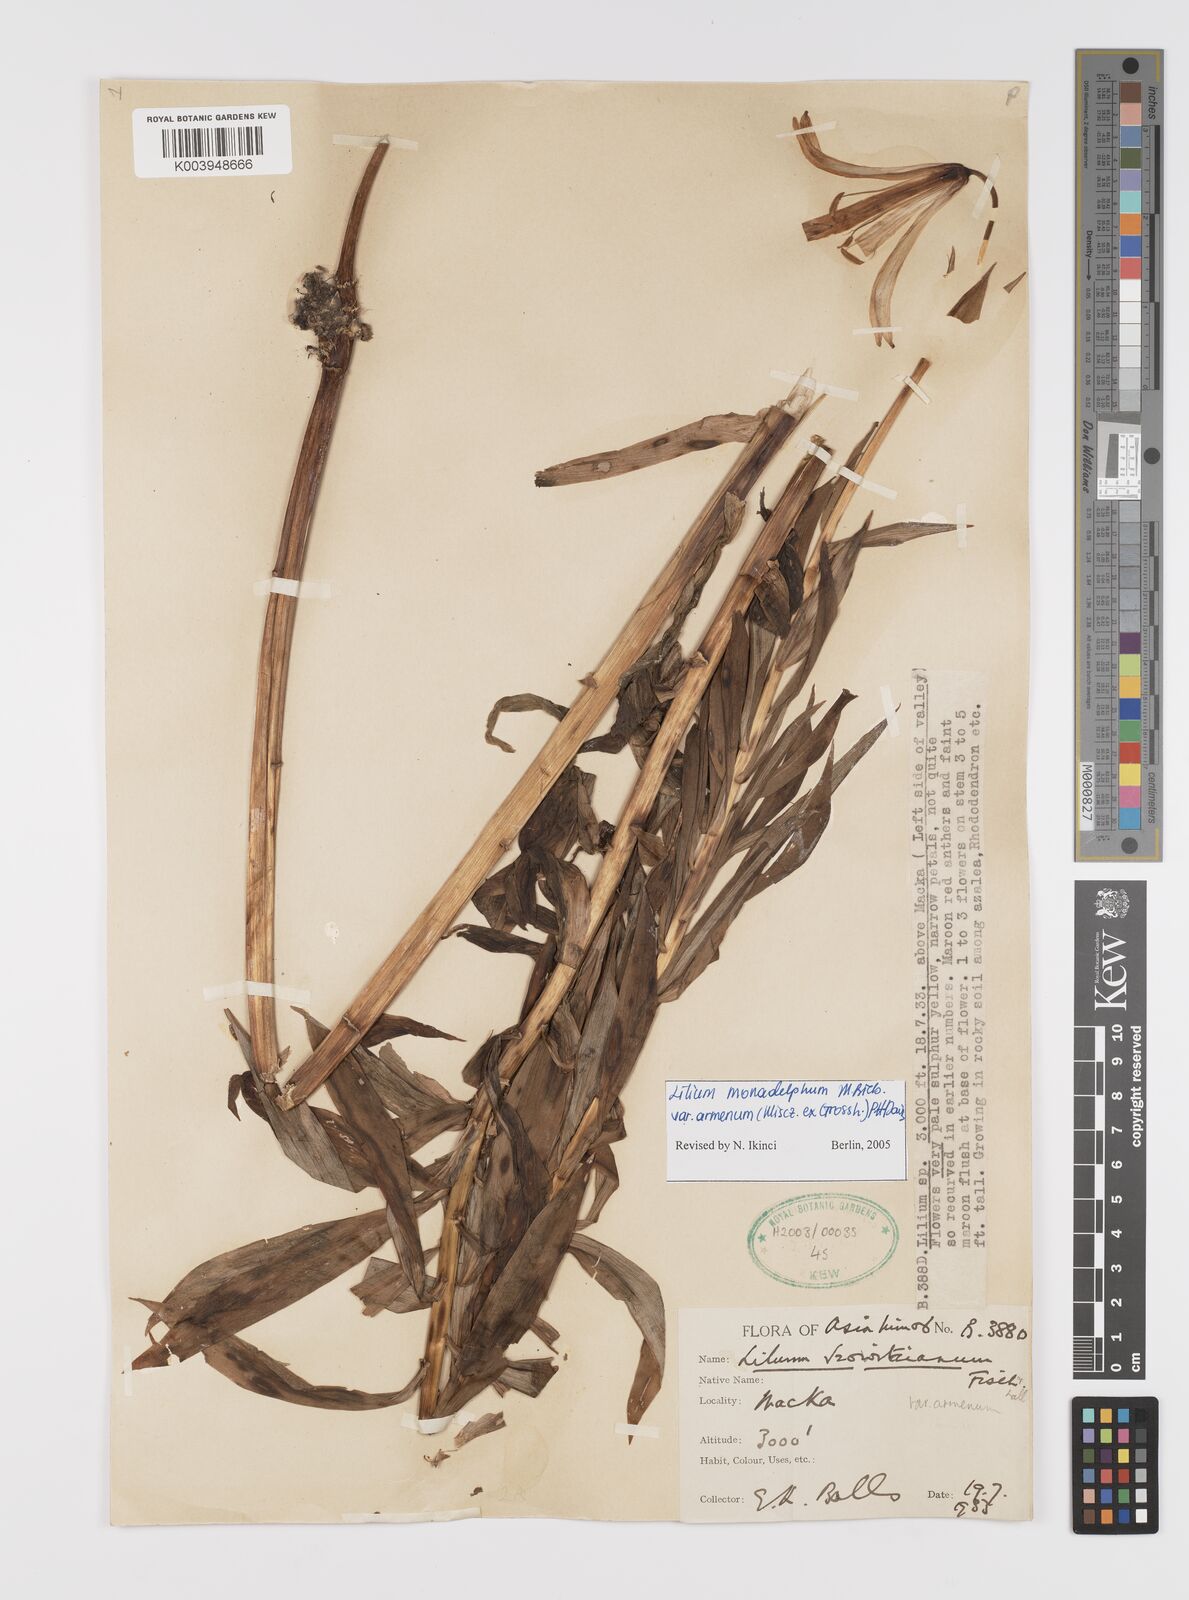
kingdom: Plantae
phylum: Tracheophyta
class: Liliopsida
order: Liliales
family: Liliaceae
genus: Lilium
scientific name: Lilium armenum
